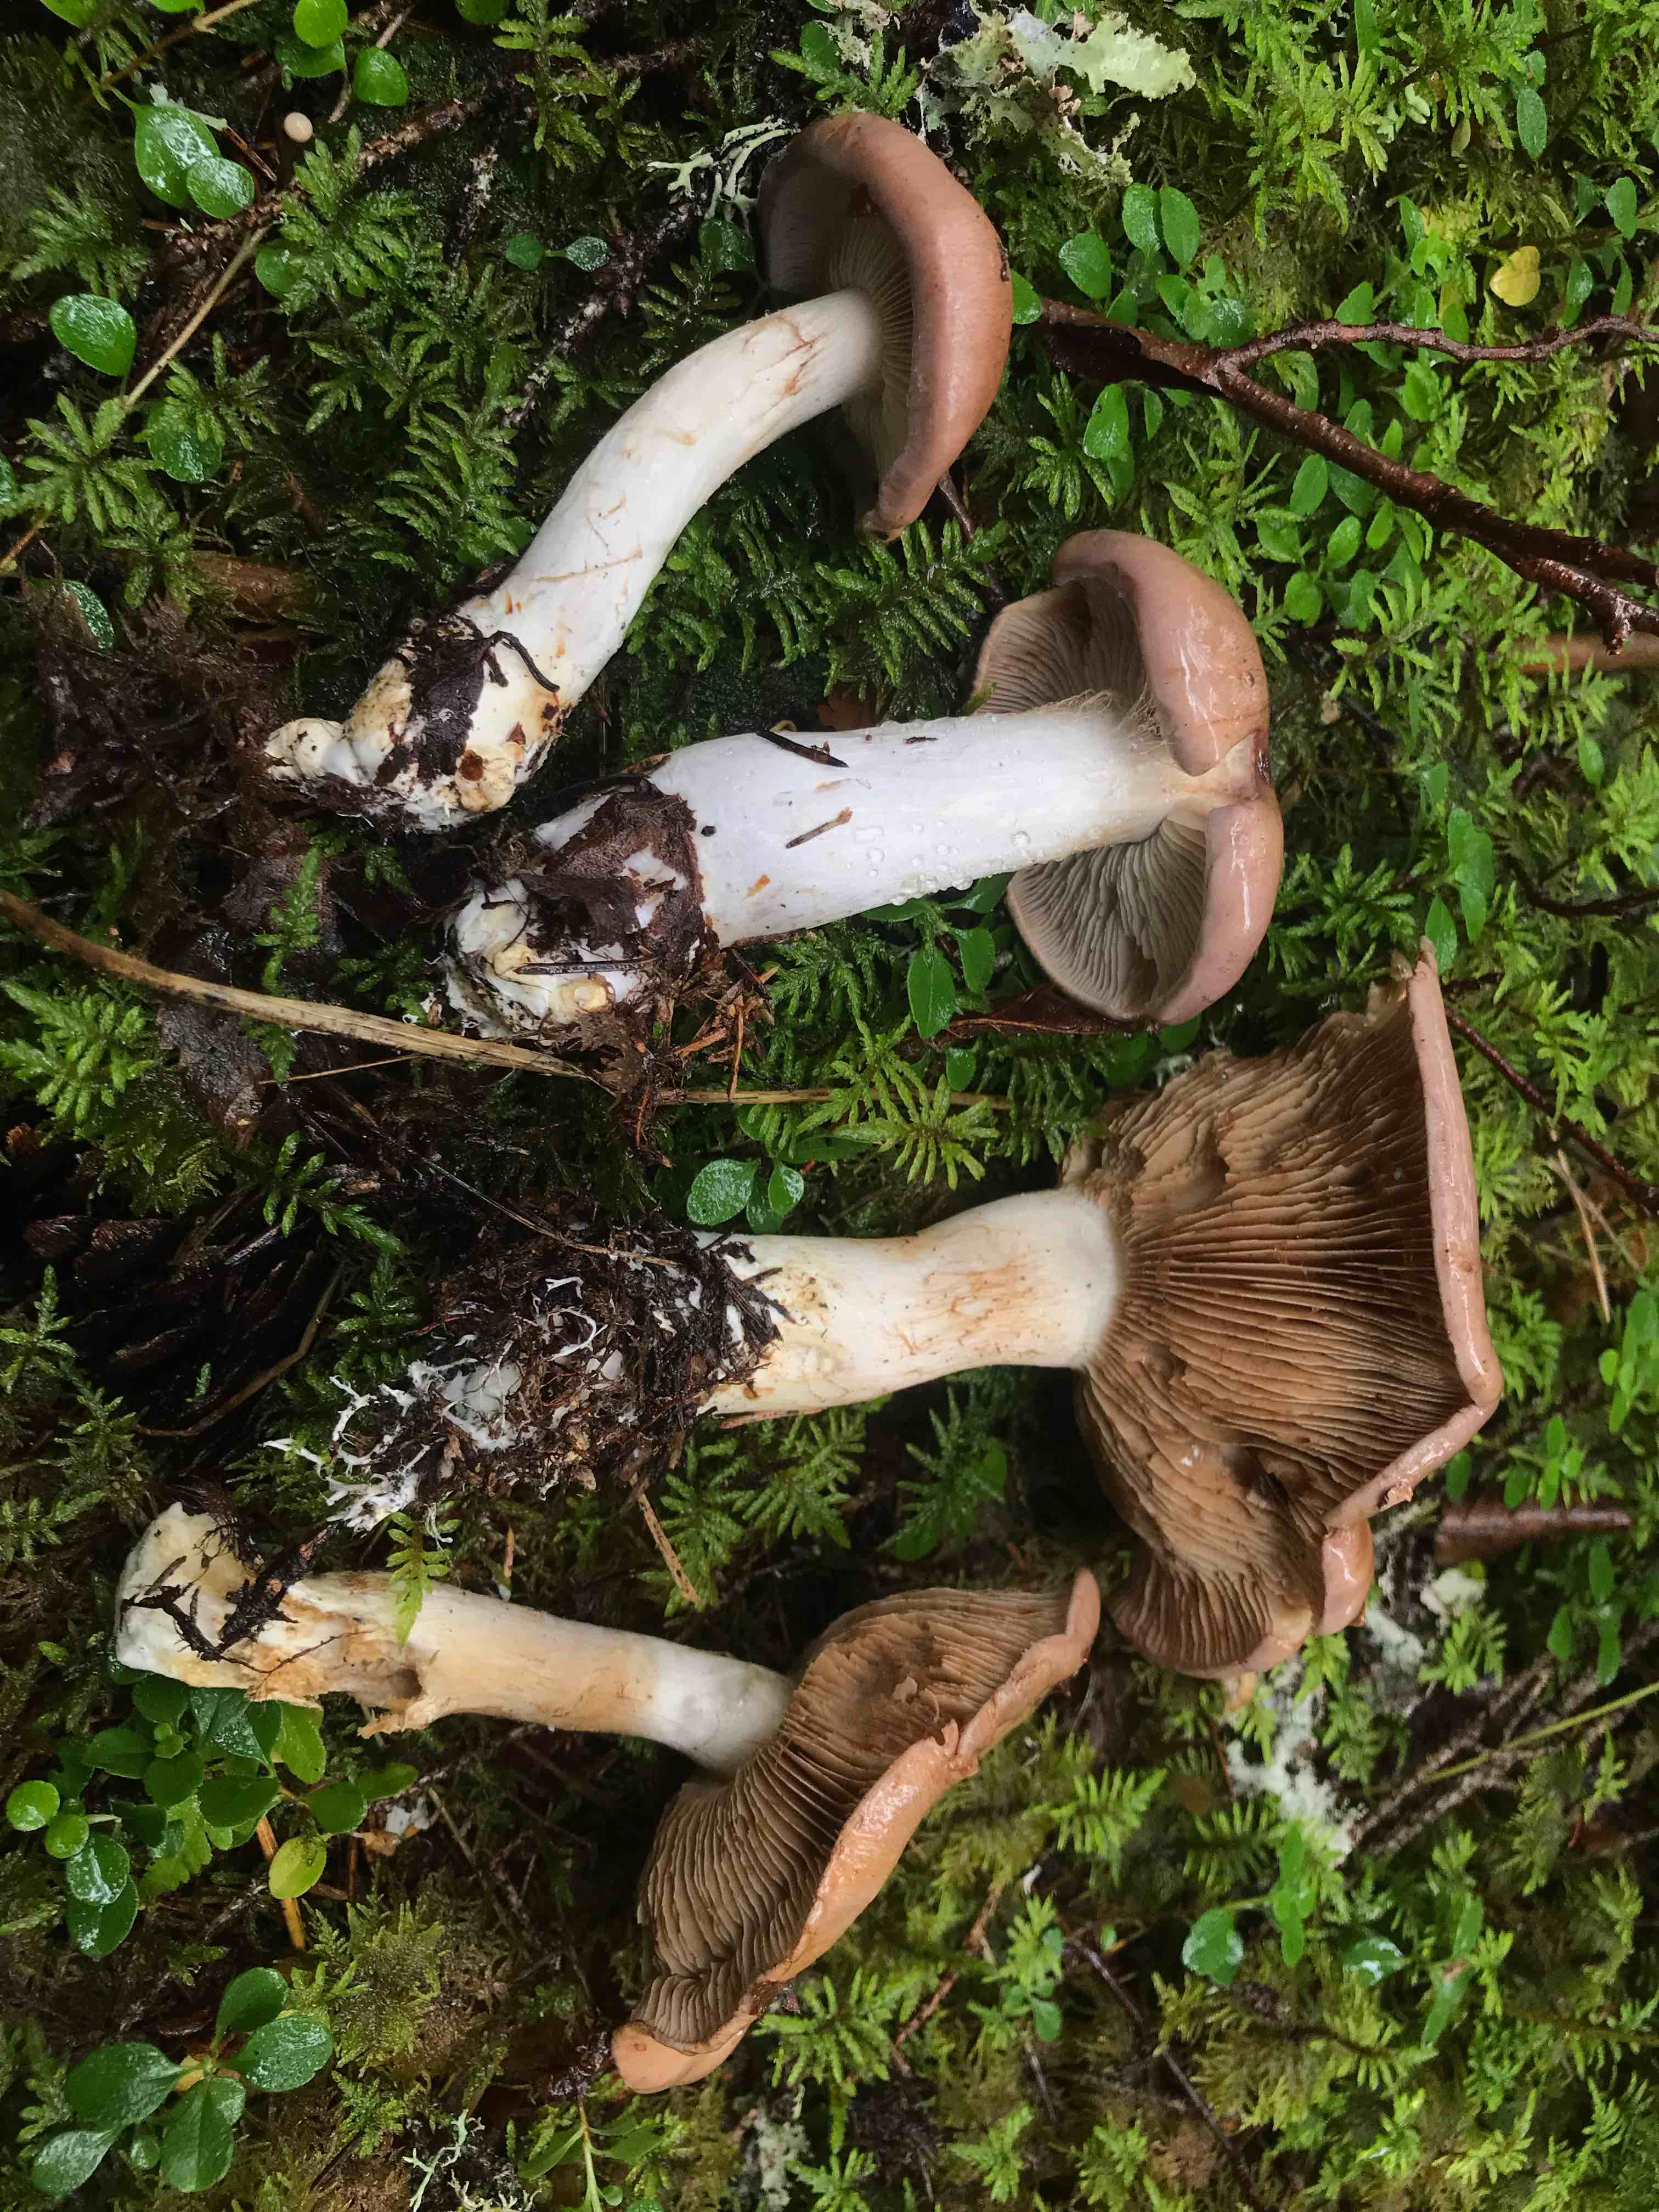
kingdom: Fungi
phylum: Basidiomycota
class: Agaricomycetes
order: Agaricales
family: Cortinariaceae
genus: Phlegmacium
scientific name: Phlegmacium serarium
